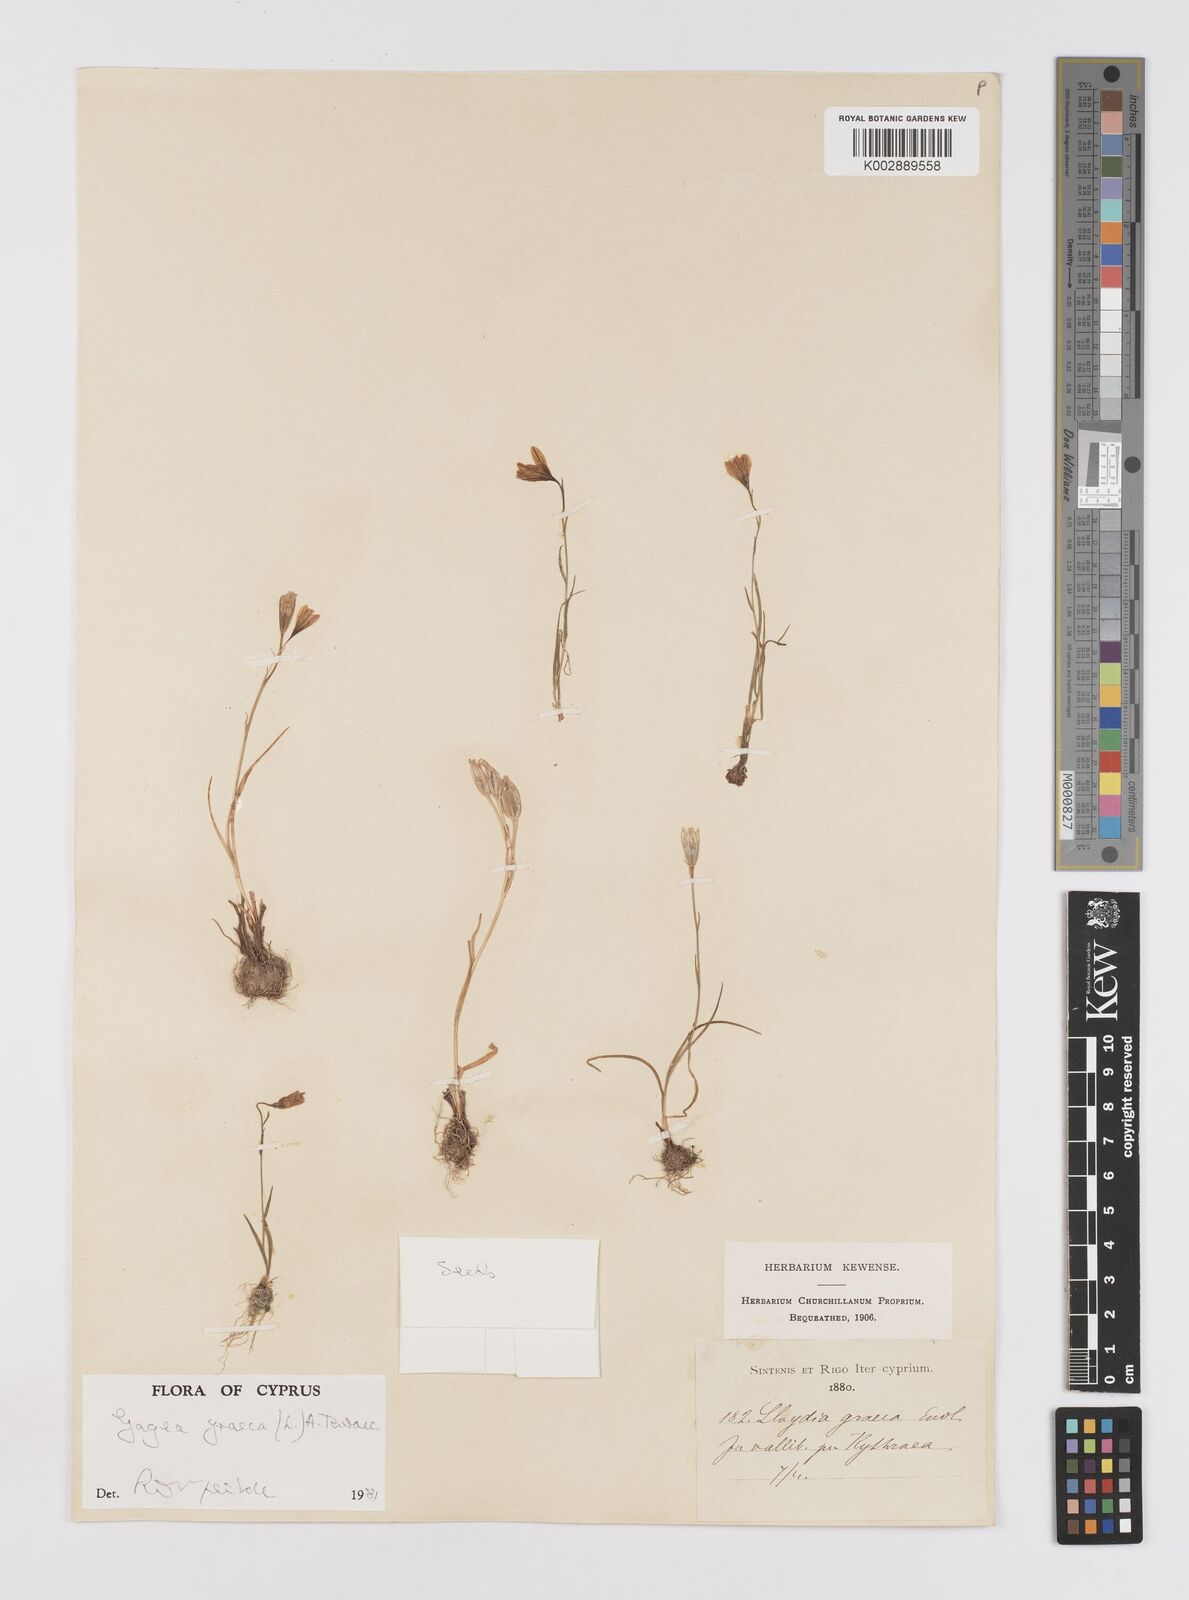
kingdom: Plantae
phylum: Tracheophyta
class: Liliopsida
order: Liliales
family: Liliaceae
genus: Gagea
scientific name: Gagea graeca
